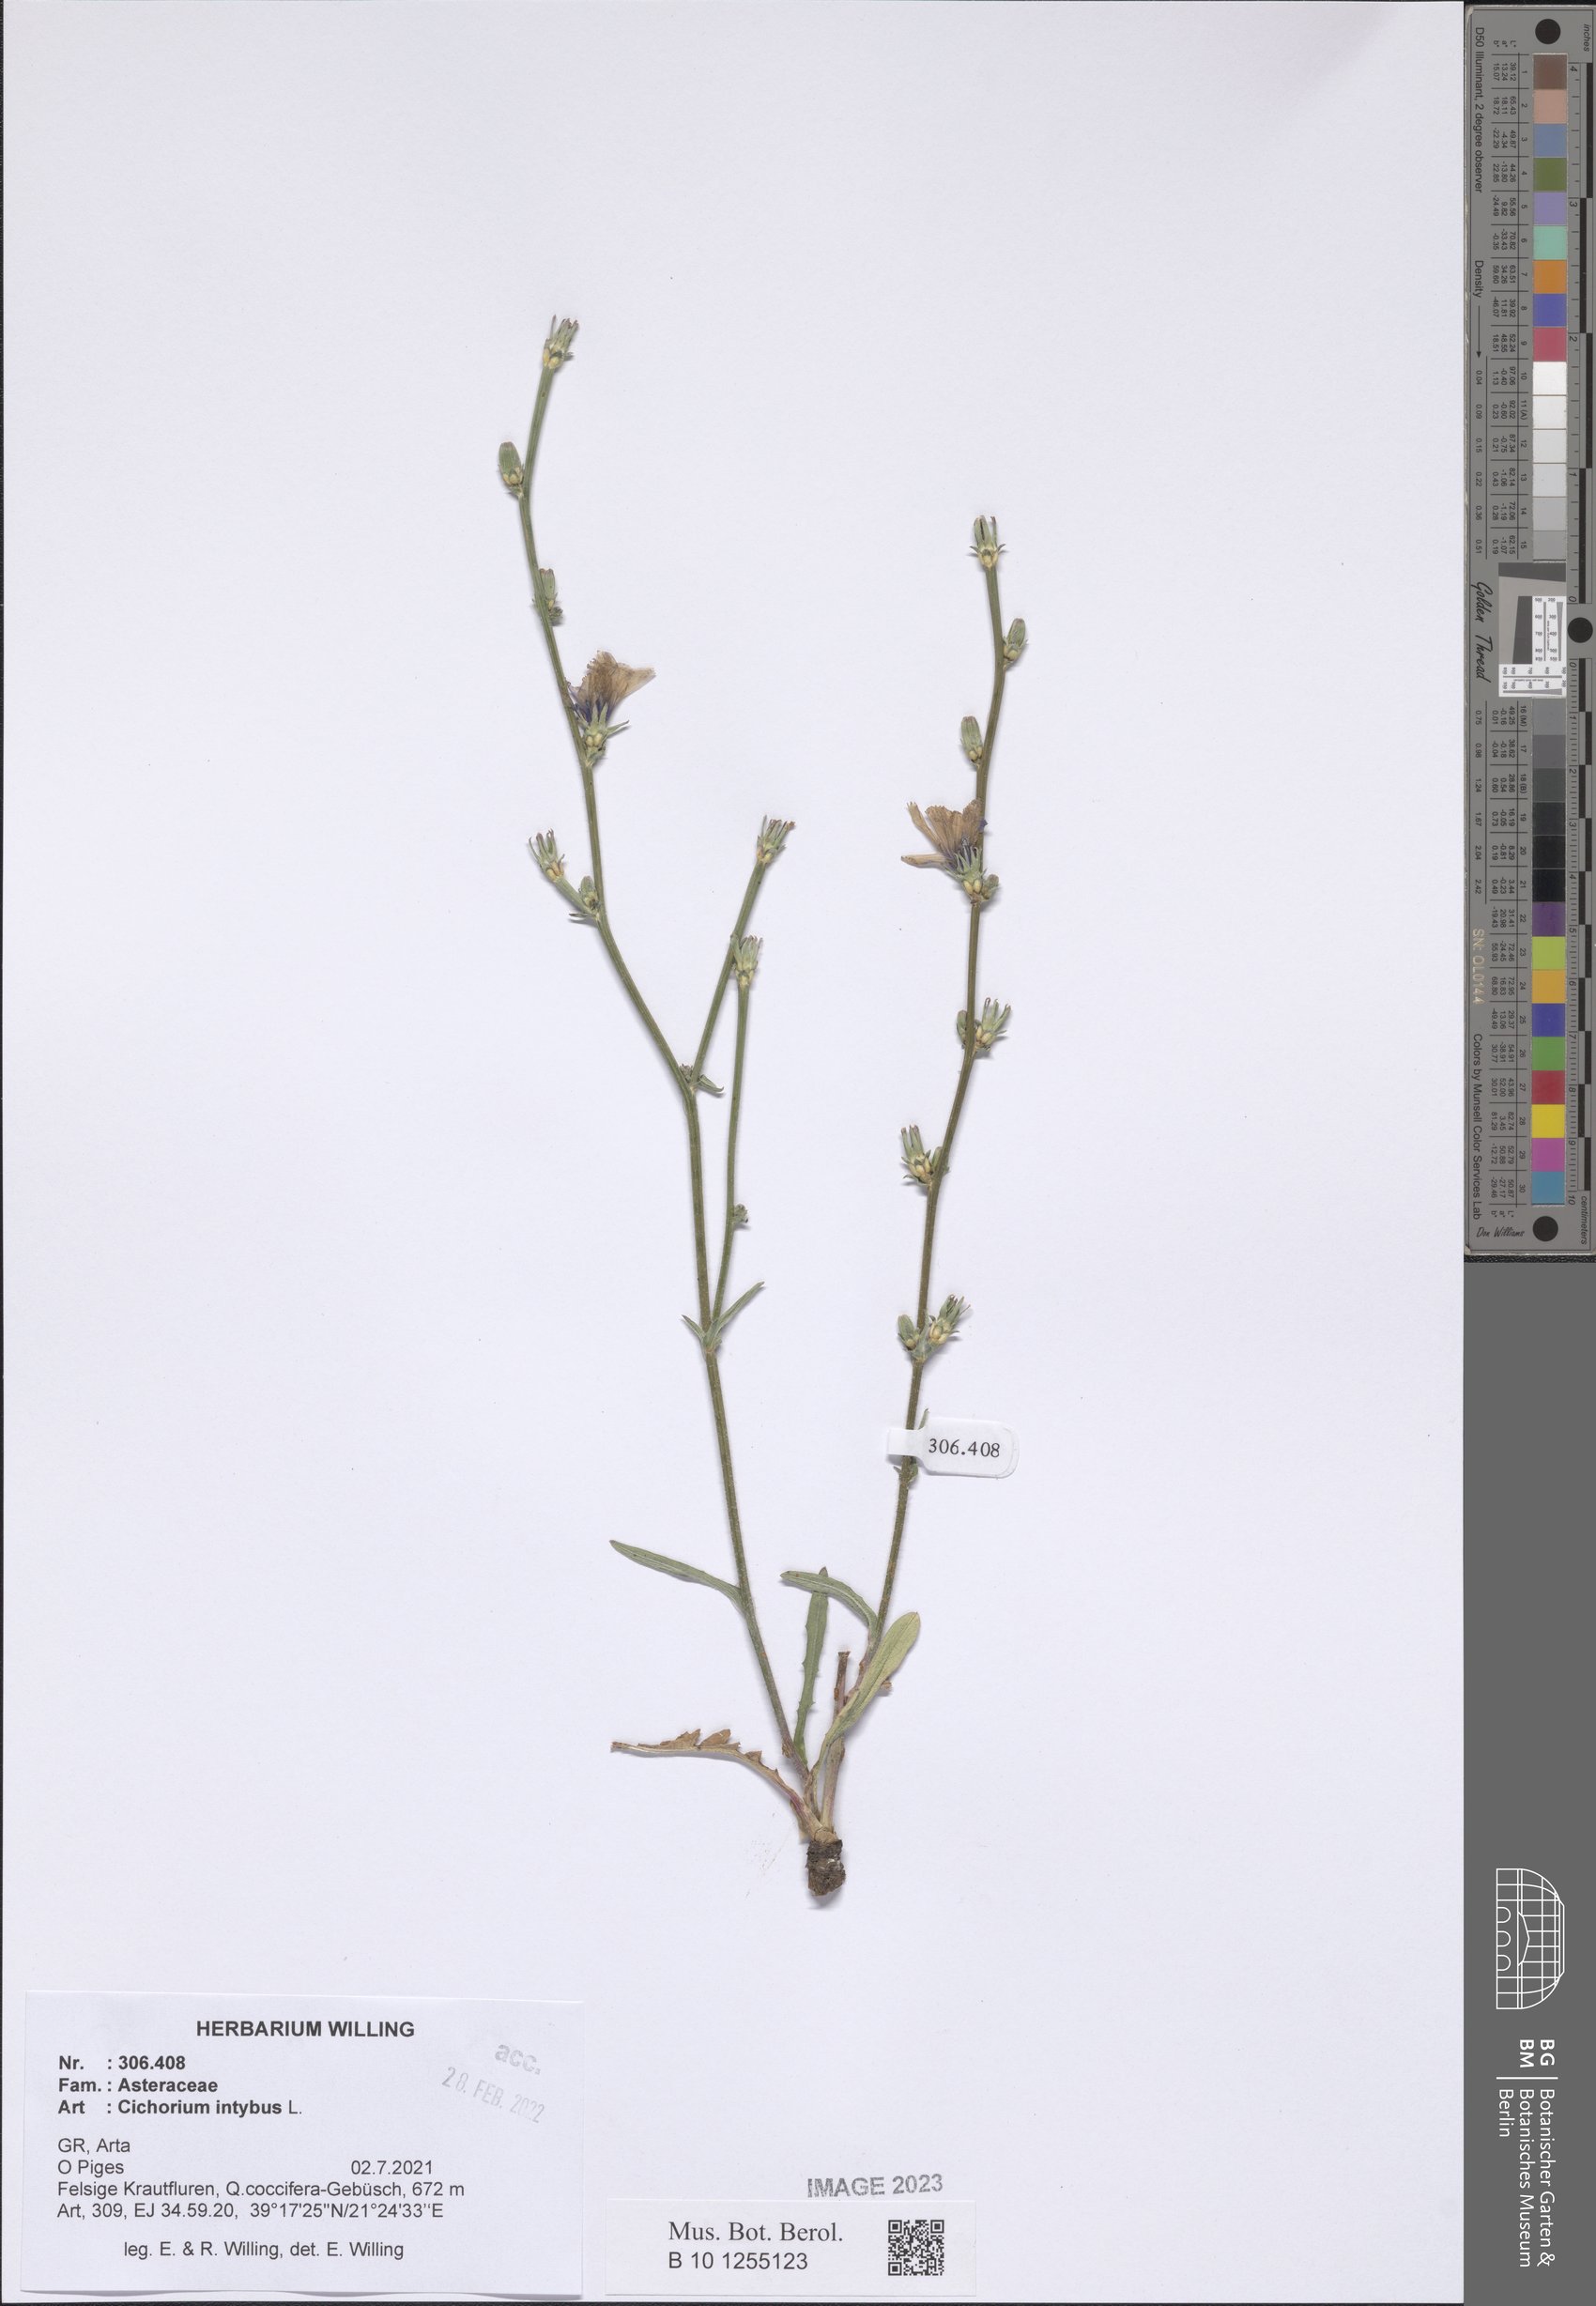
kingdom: Plantae
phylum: Tracheophyta
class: Magnoliopsida
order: Asterales
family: Asteraceae
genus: Cichorium
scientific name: Cichorium intybus
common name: Chicory
